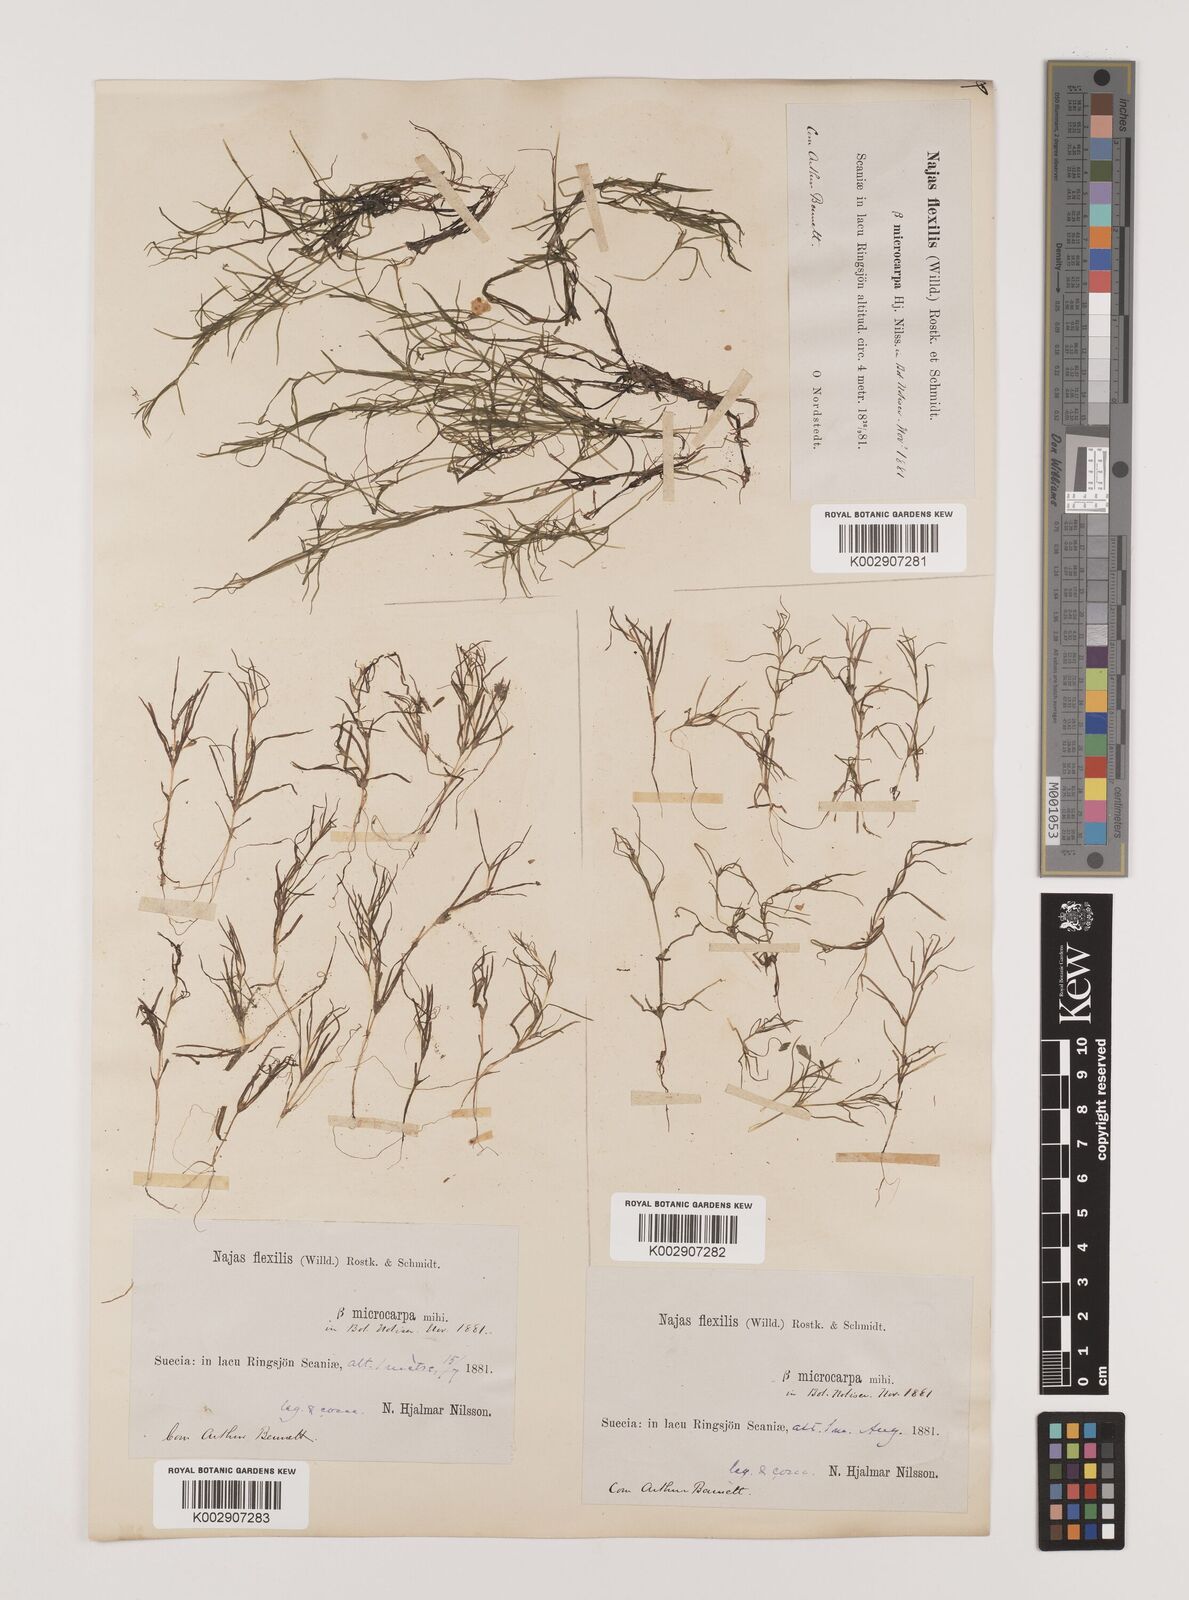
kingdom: Plantae
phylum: Tracheophyta
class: Liliopsida
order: Alismatales
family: Hydrocharitaceae
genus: Najas
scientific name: Najas flexilis
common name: Slender naiad
